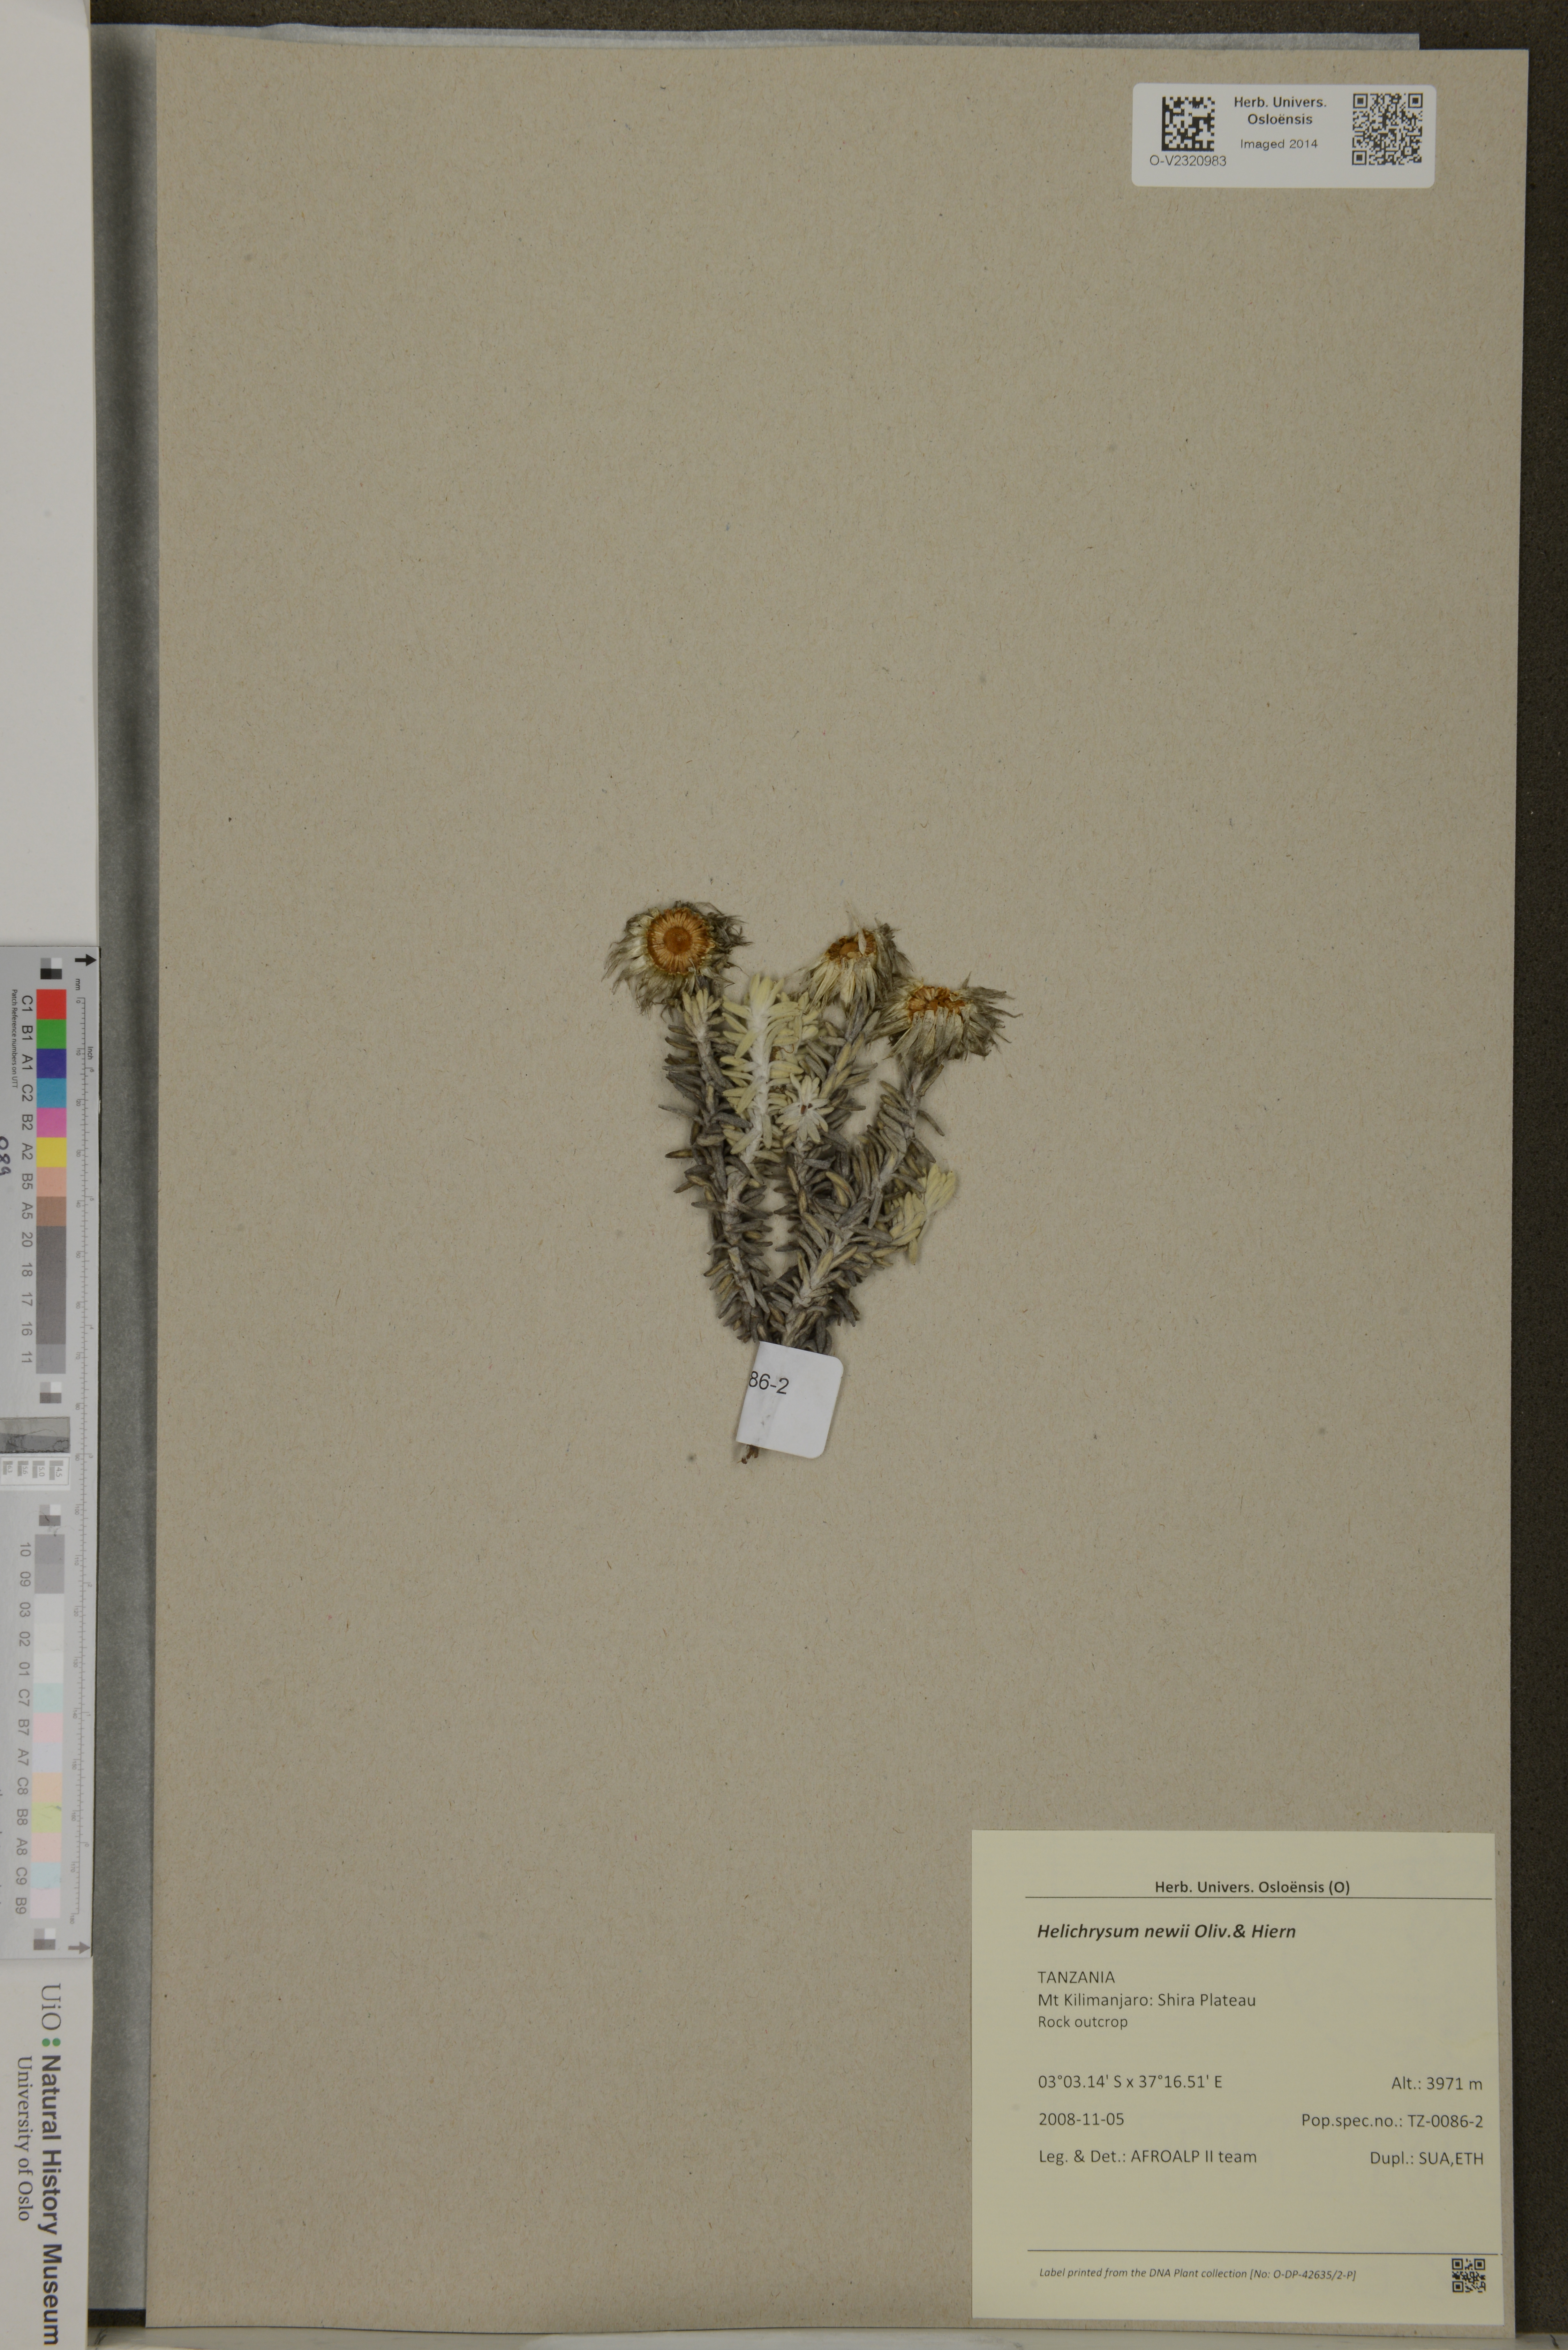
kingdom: Plantae
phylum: Tracheophyta
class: Magnoliopsida
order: Asterales
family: Asteraceae
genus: Helichrysum
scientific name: Helichrysum newii
